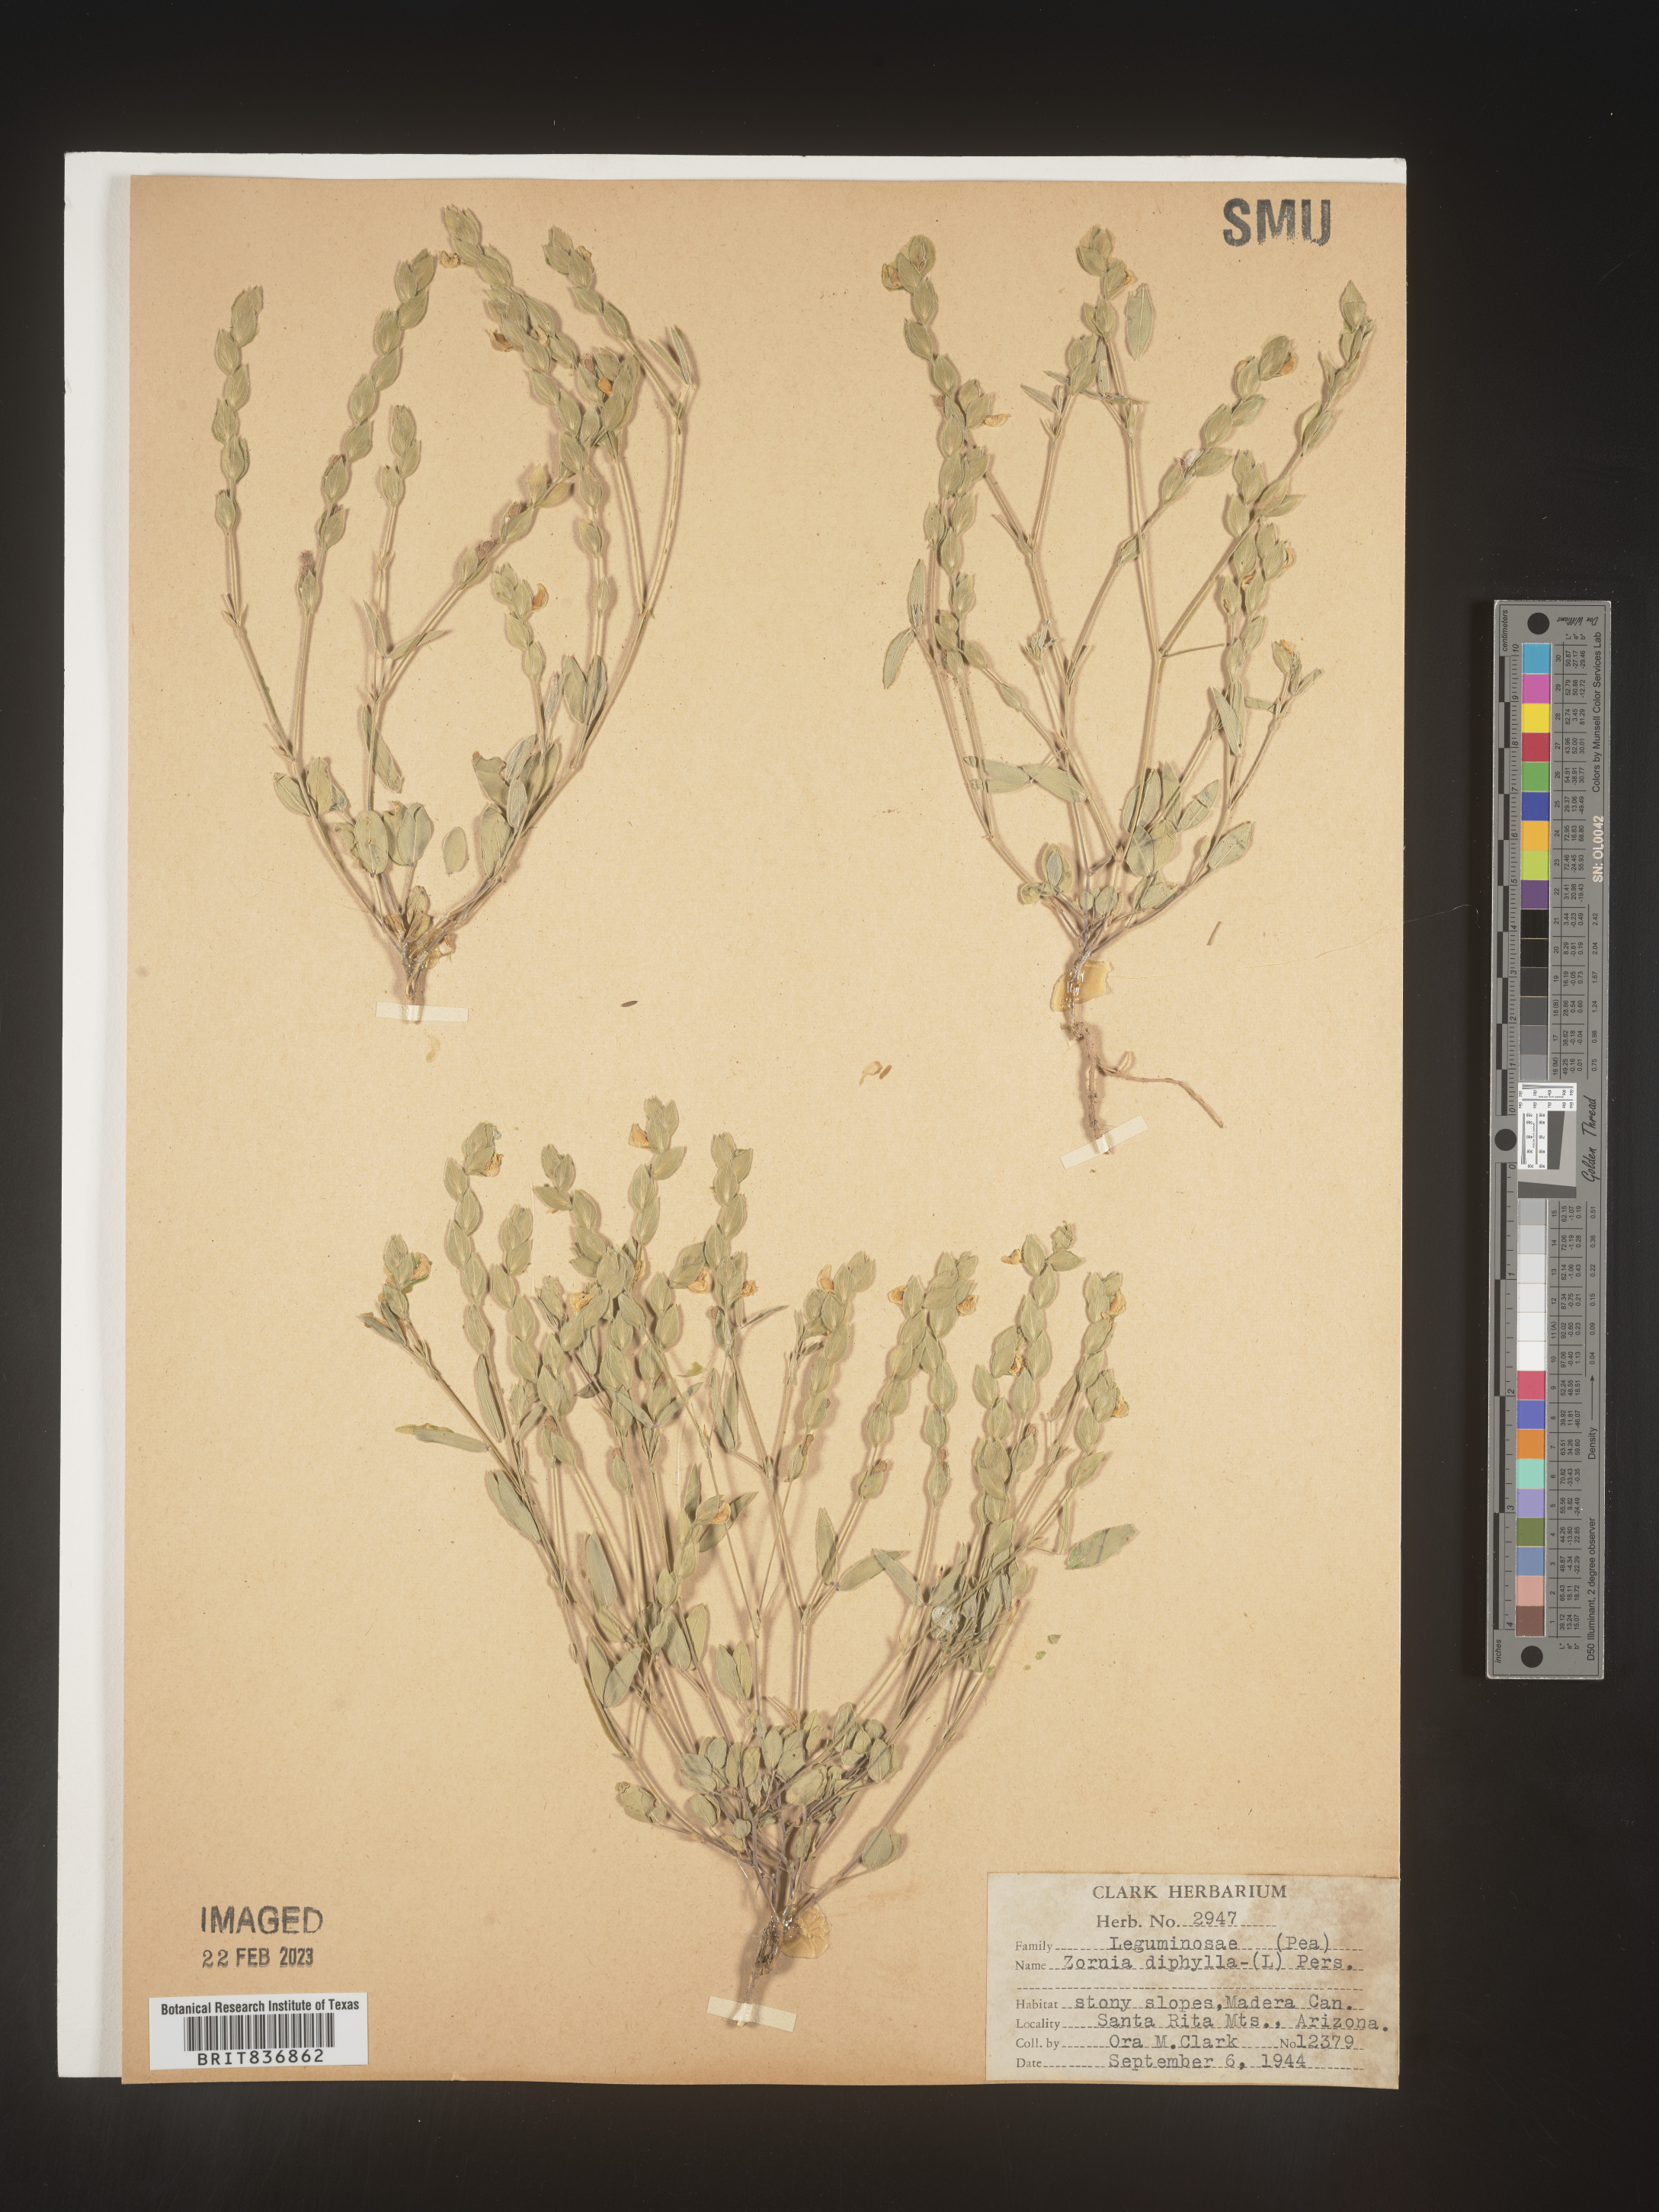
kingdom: Plantae
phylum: Tracheophyta
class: Magnoliopsida
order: Fabales
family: Fabaceae
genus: Zornia
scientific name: Zornia
